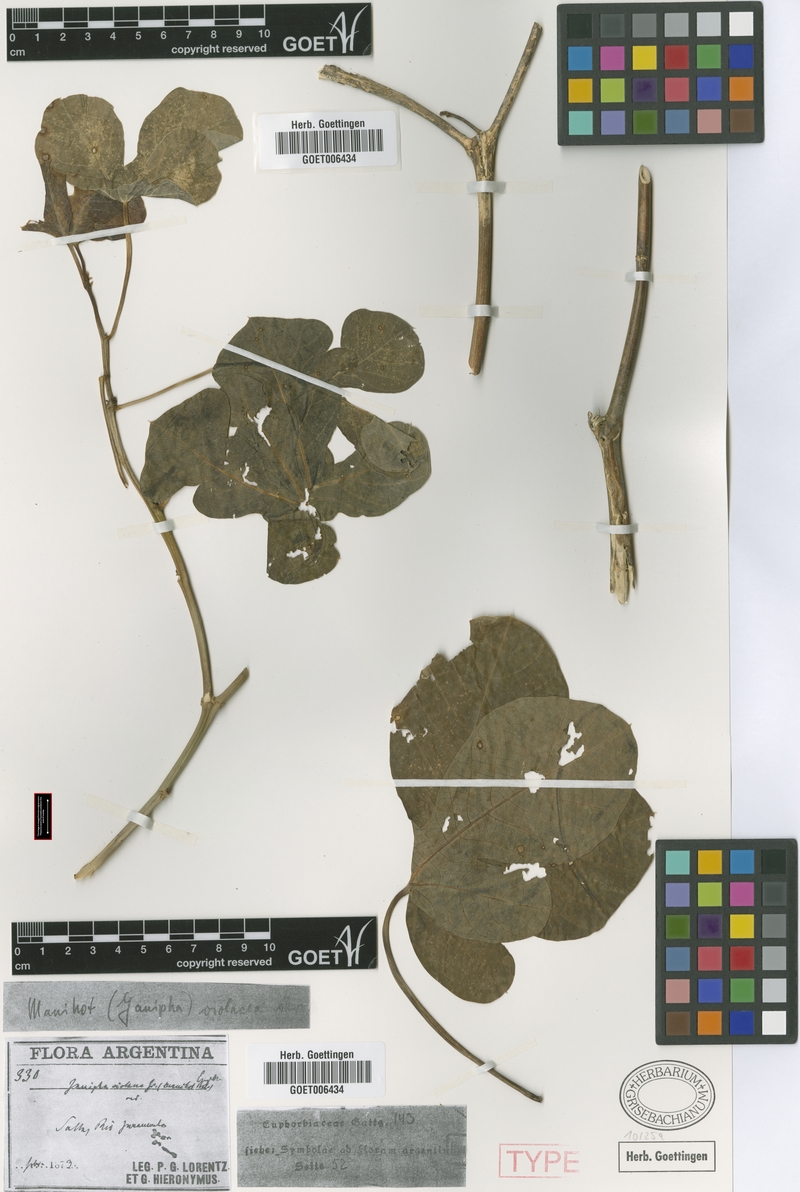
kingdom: Plantae
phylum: Tracheophyta
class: Magnoliopsida
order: Malpighiales
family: Euphorbiaceae
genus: Manihot
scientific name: Manihot guaranitica
